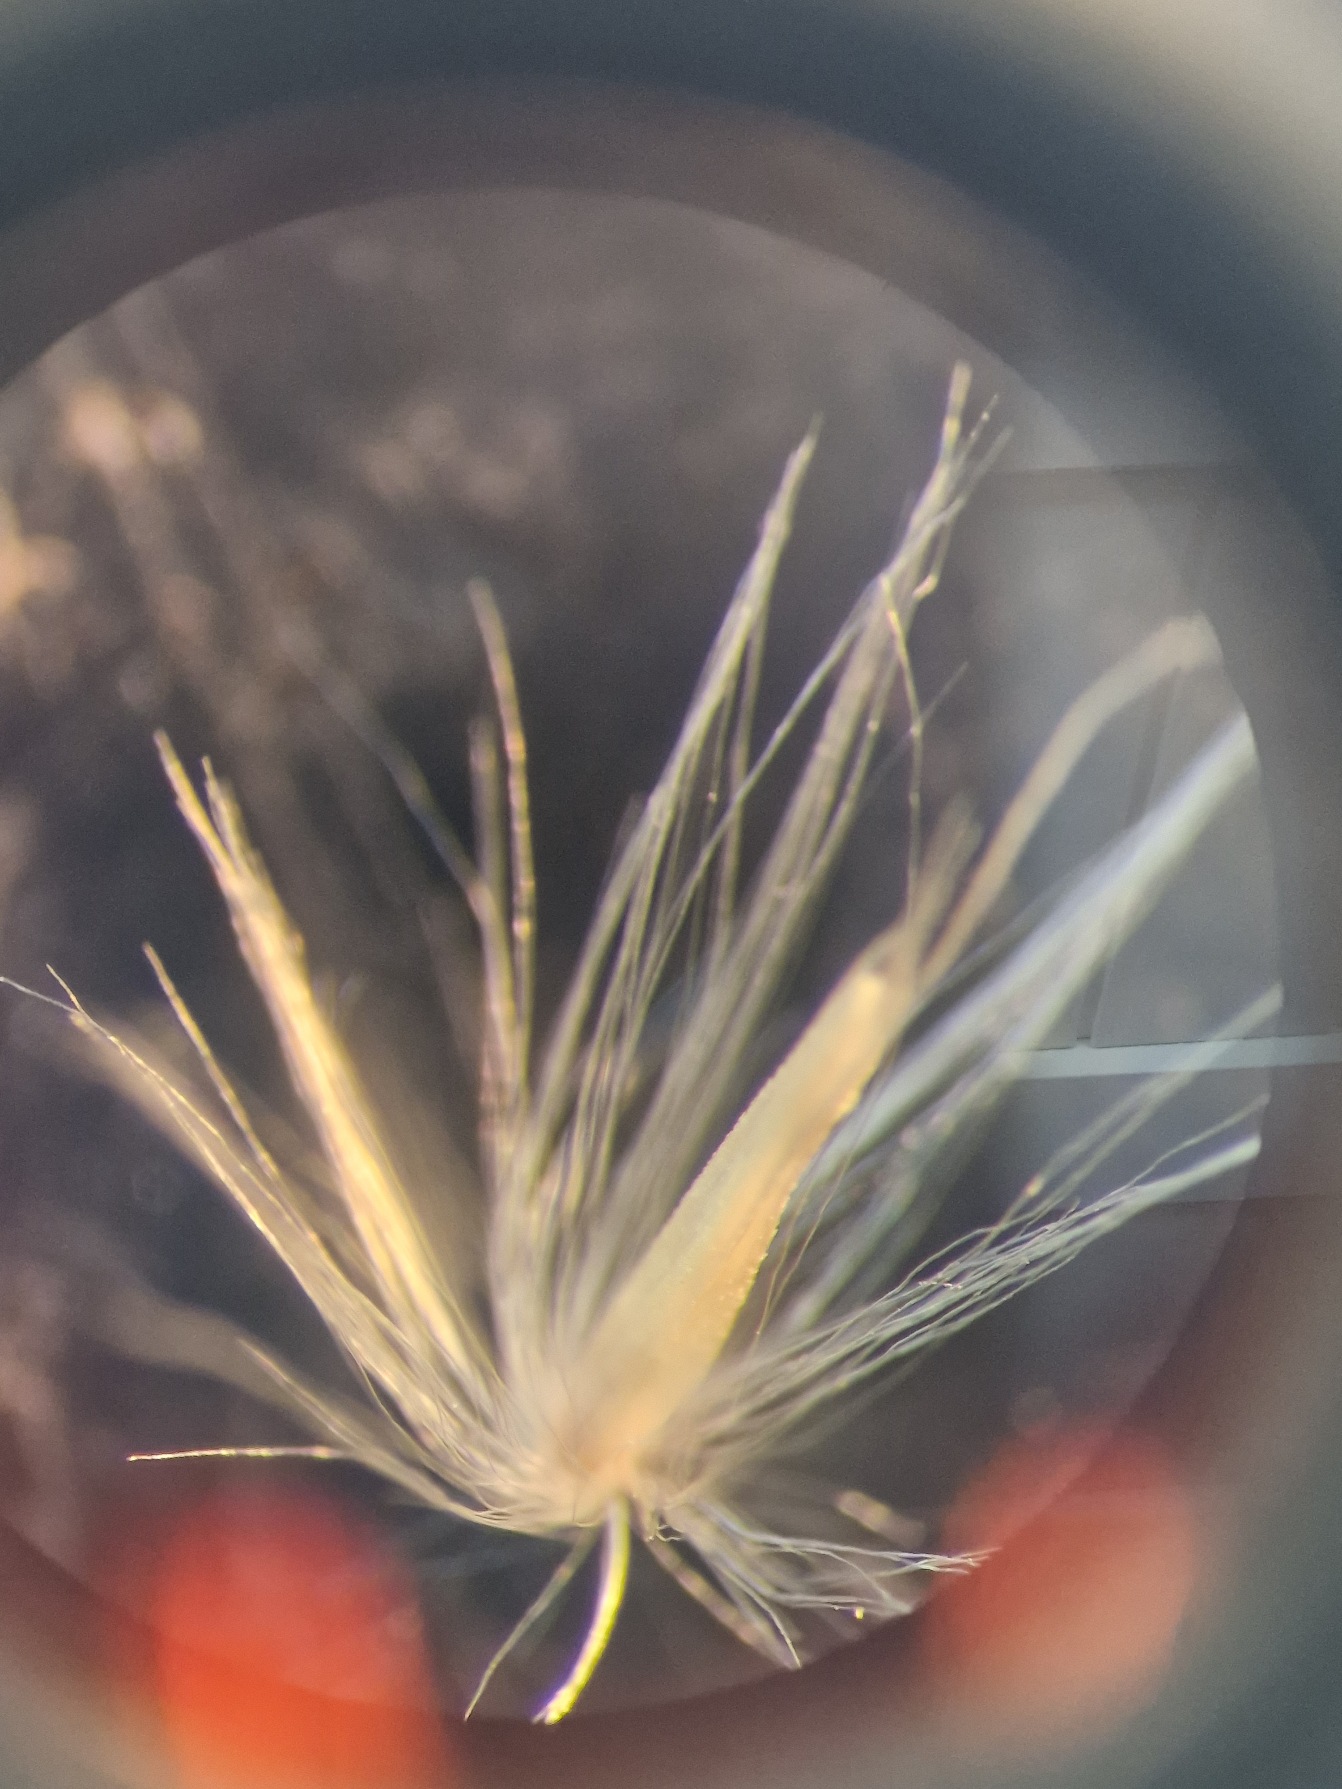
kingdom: Plantae
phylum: Tracheophyta
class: Liliopsida
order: Poales
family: Poaceae
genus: Calamagrostis
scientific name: Calamagrostis epigejos
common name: Bjerg-rørhvene
